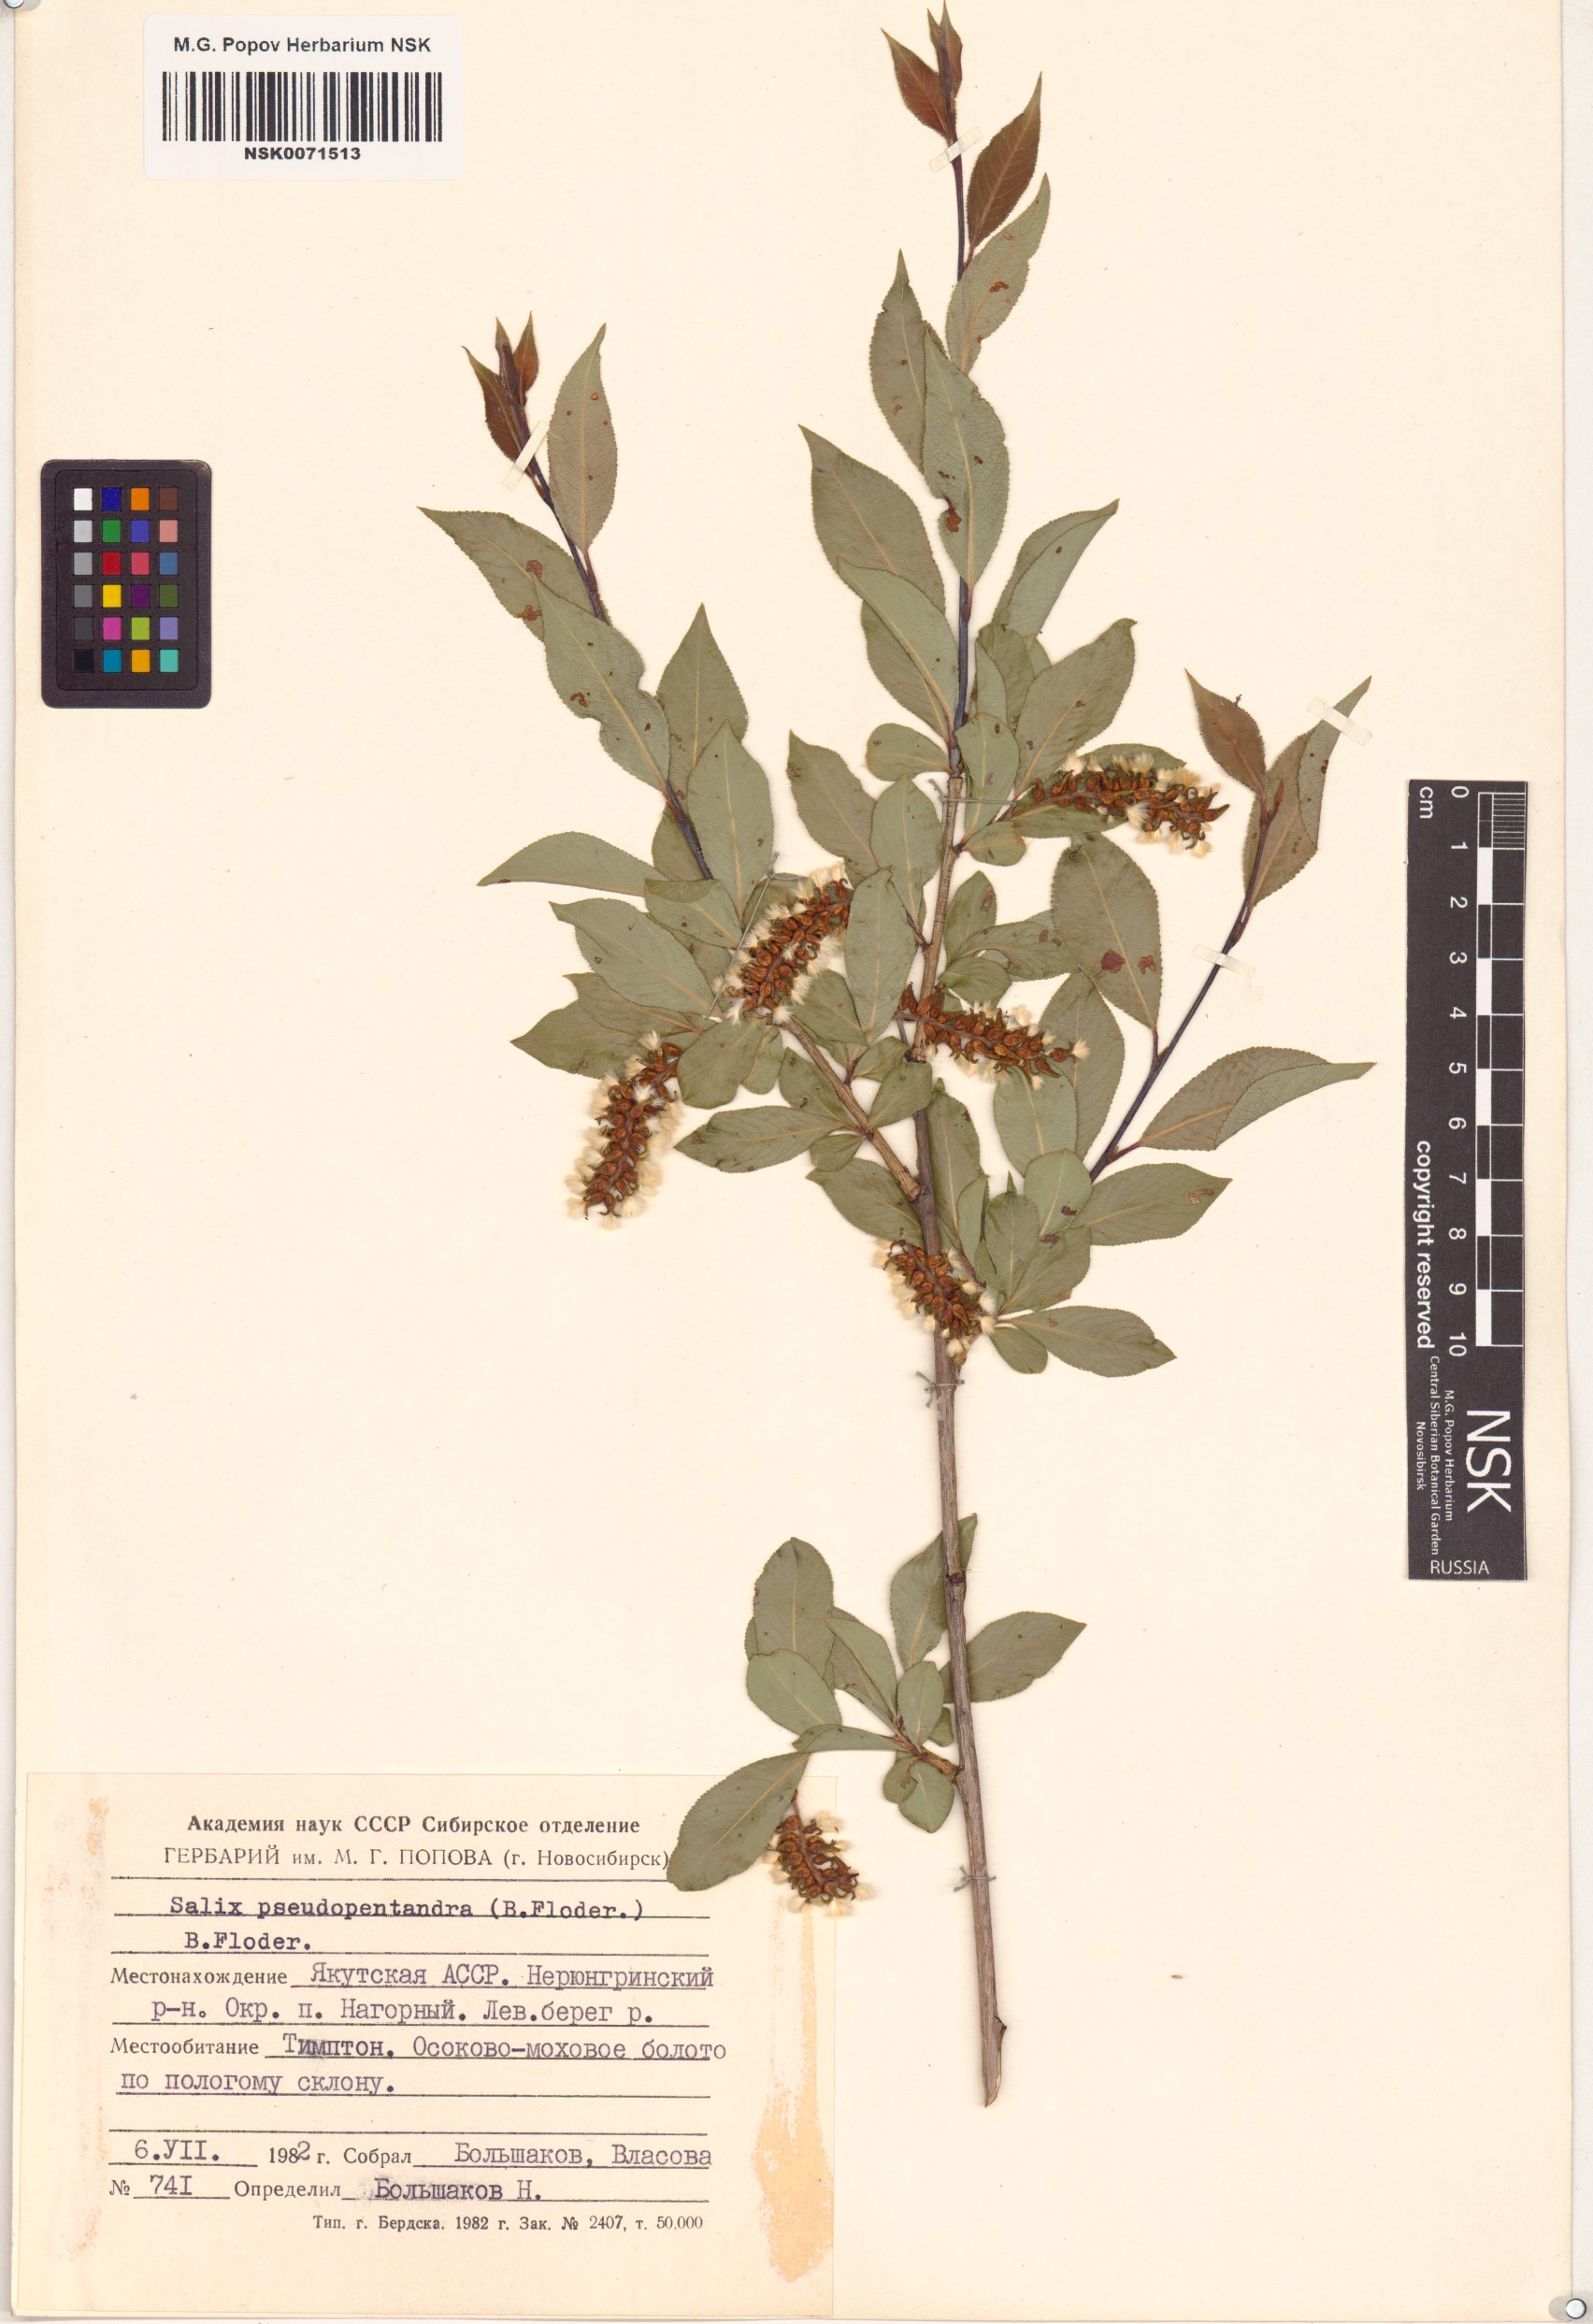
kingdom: Plantae
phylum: Tracheophyta
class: Magnoliopsida
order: Malpighiales
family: Salicaceae
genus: Salix
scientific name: Salix pseudopentandra
